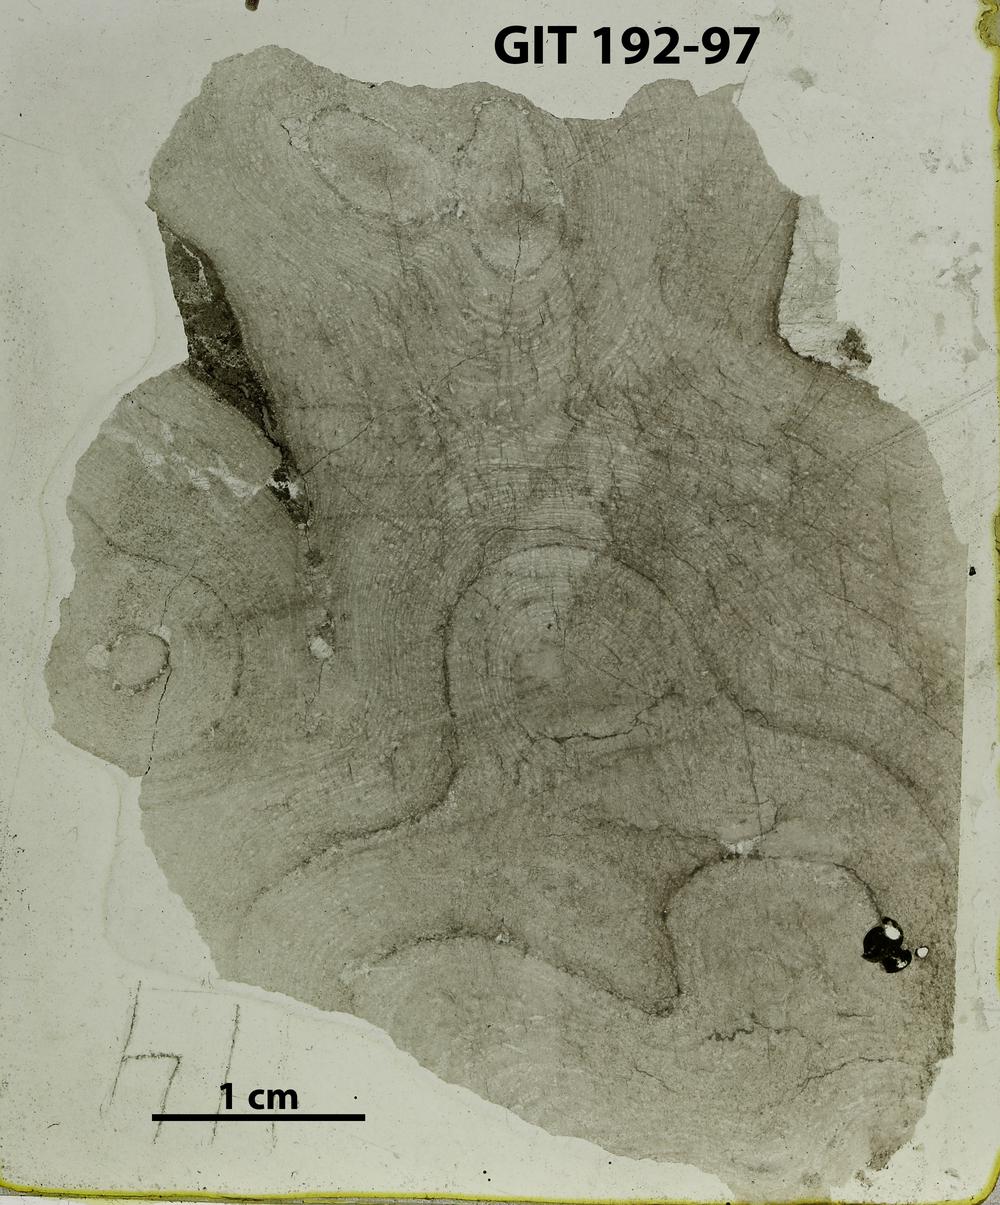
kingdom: Animalia
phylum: Porifera
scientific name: Porifera
